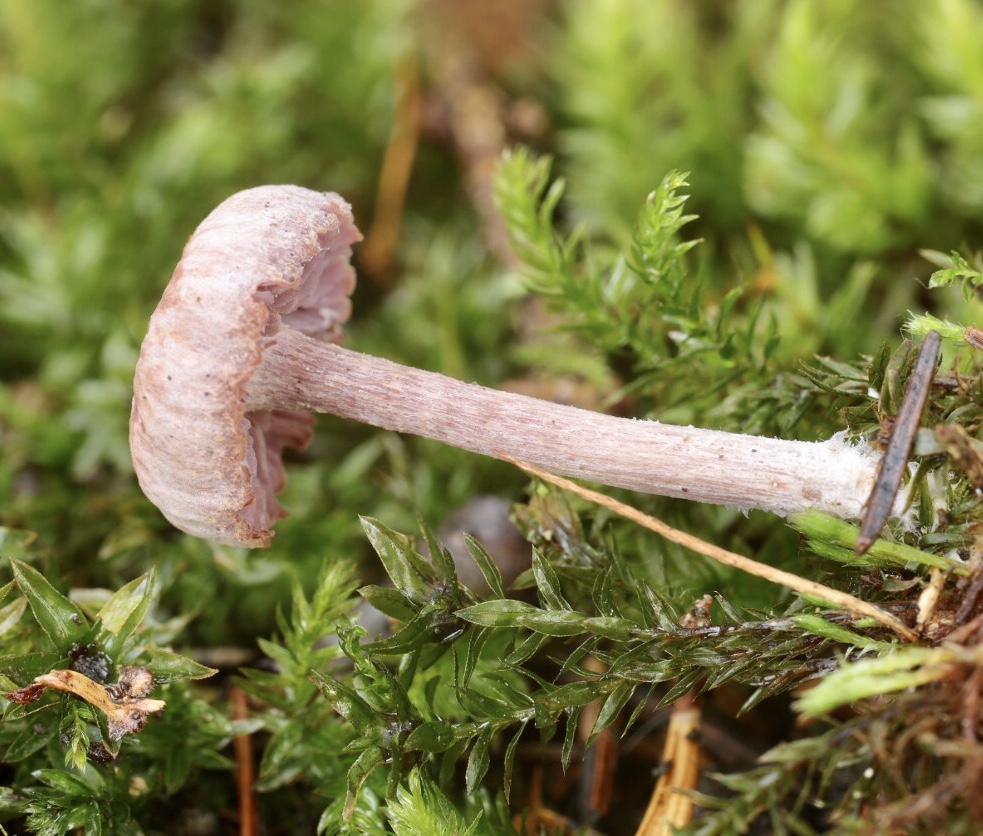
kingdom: Fungi
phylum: Basidiomycota
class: Agaricomycetes
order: Agaricales
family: Hydnangiaceae
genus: Laccaria
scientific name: Laccaria amethystina
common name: violet ametysthat
